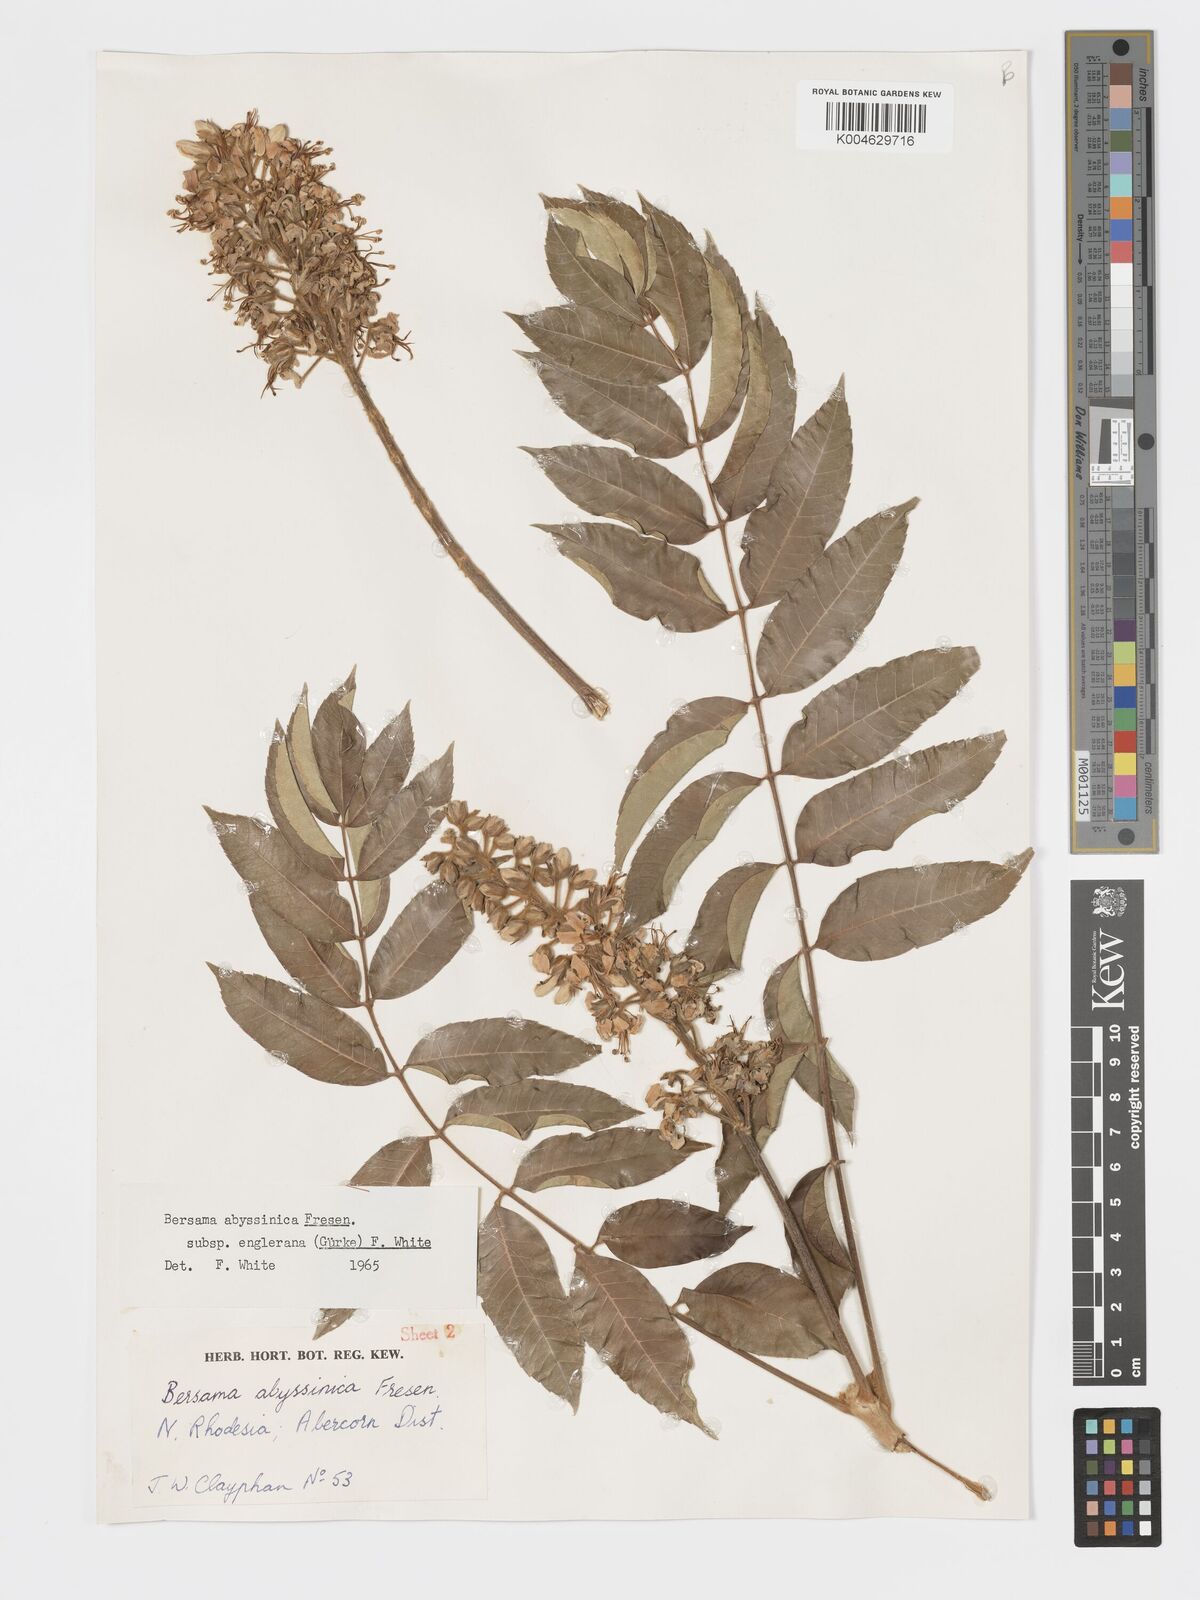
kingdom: Plantae
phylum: Tracheophyta
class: Magnoliopsida
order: Geraniales
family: Melianthaceae
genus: Bersama
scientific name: Bersama abyssinica
